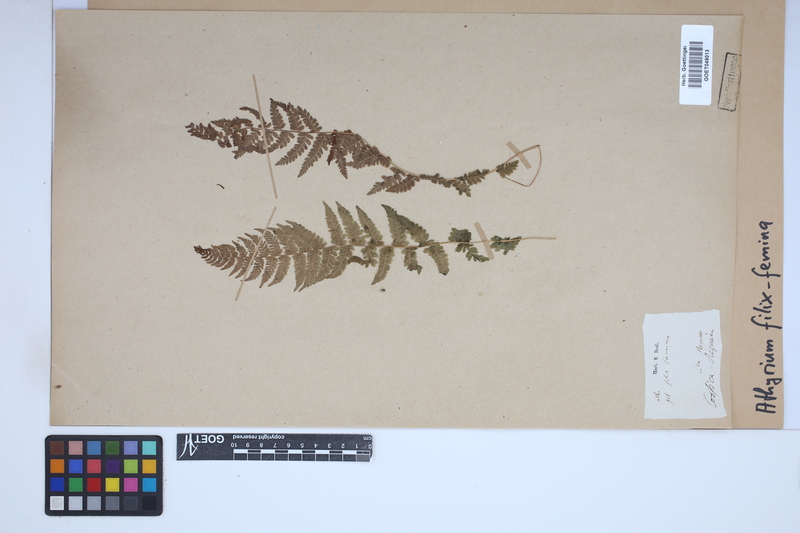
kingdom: Plantae
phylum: Tracheophyta
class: Polypodiopsida
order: Polypodiales
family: Athyriaceae
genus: Athyrium
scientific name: Athyrium filix-femina
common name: Lady fern
